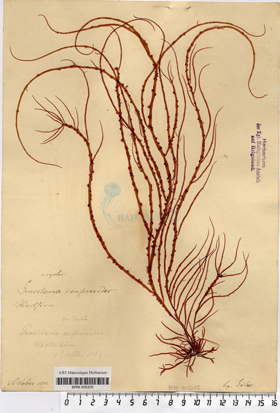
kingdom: Plantae
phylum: Rhodophyta
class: Florideophyceae
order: Gracilariales
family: Gracilariaceae
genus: Gracilaria
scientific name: Gracilaria gracilis
